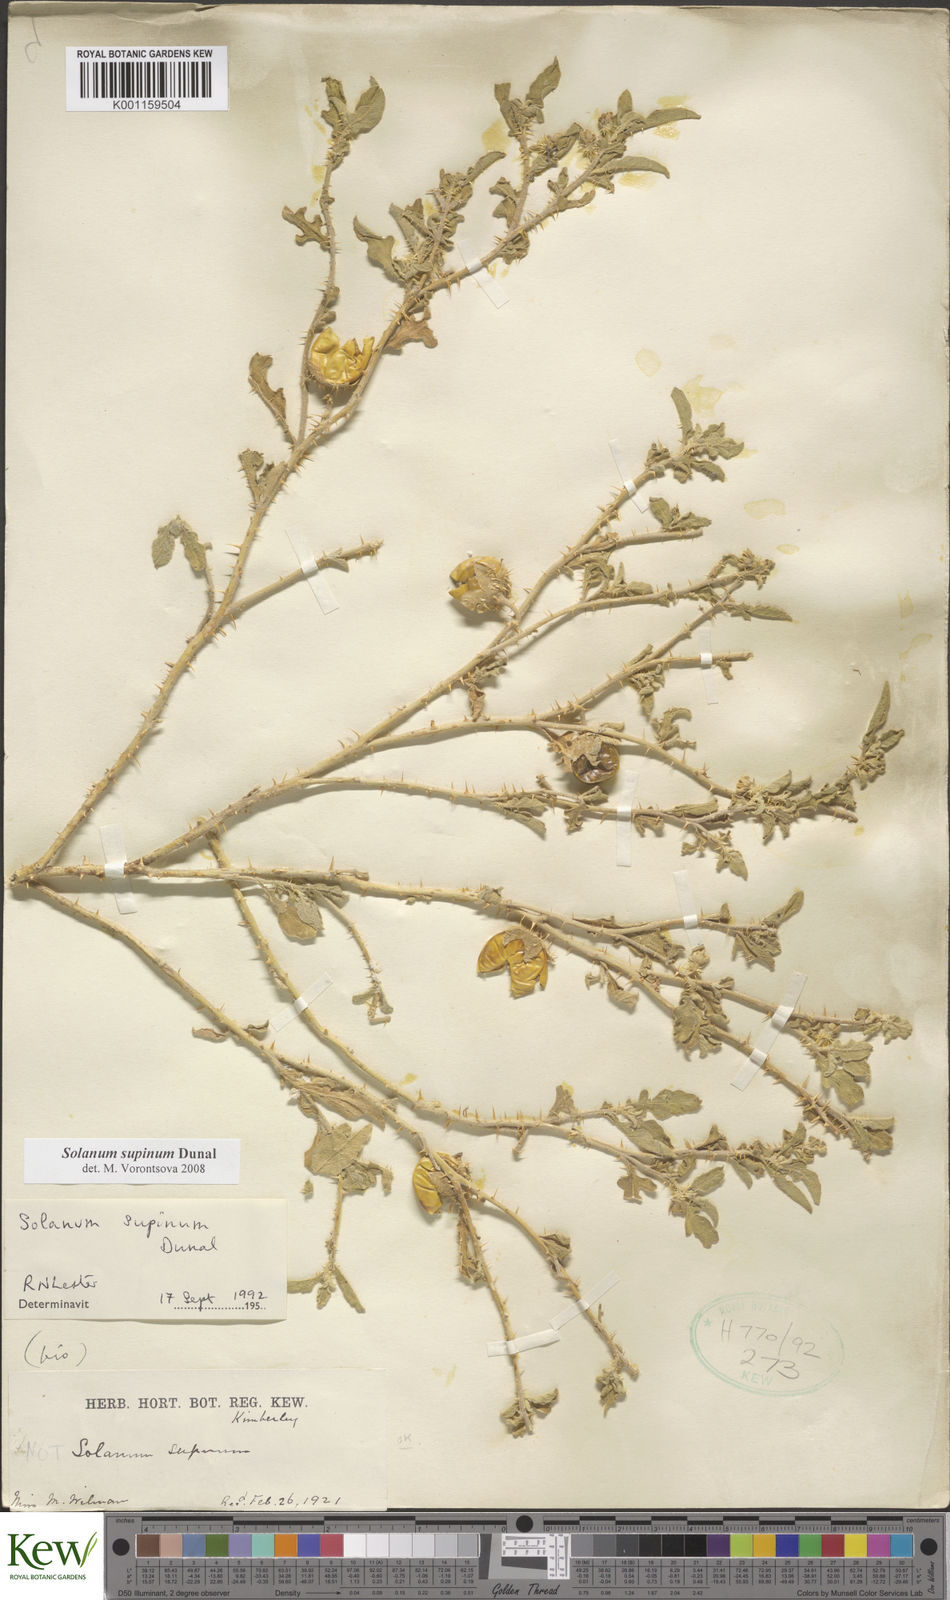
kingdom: Plantae
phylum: Tracheophyta
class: Magnoliopsida
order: Solanales
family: Solanaceae
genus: Solanum
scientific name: Solanum supinum
